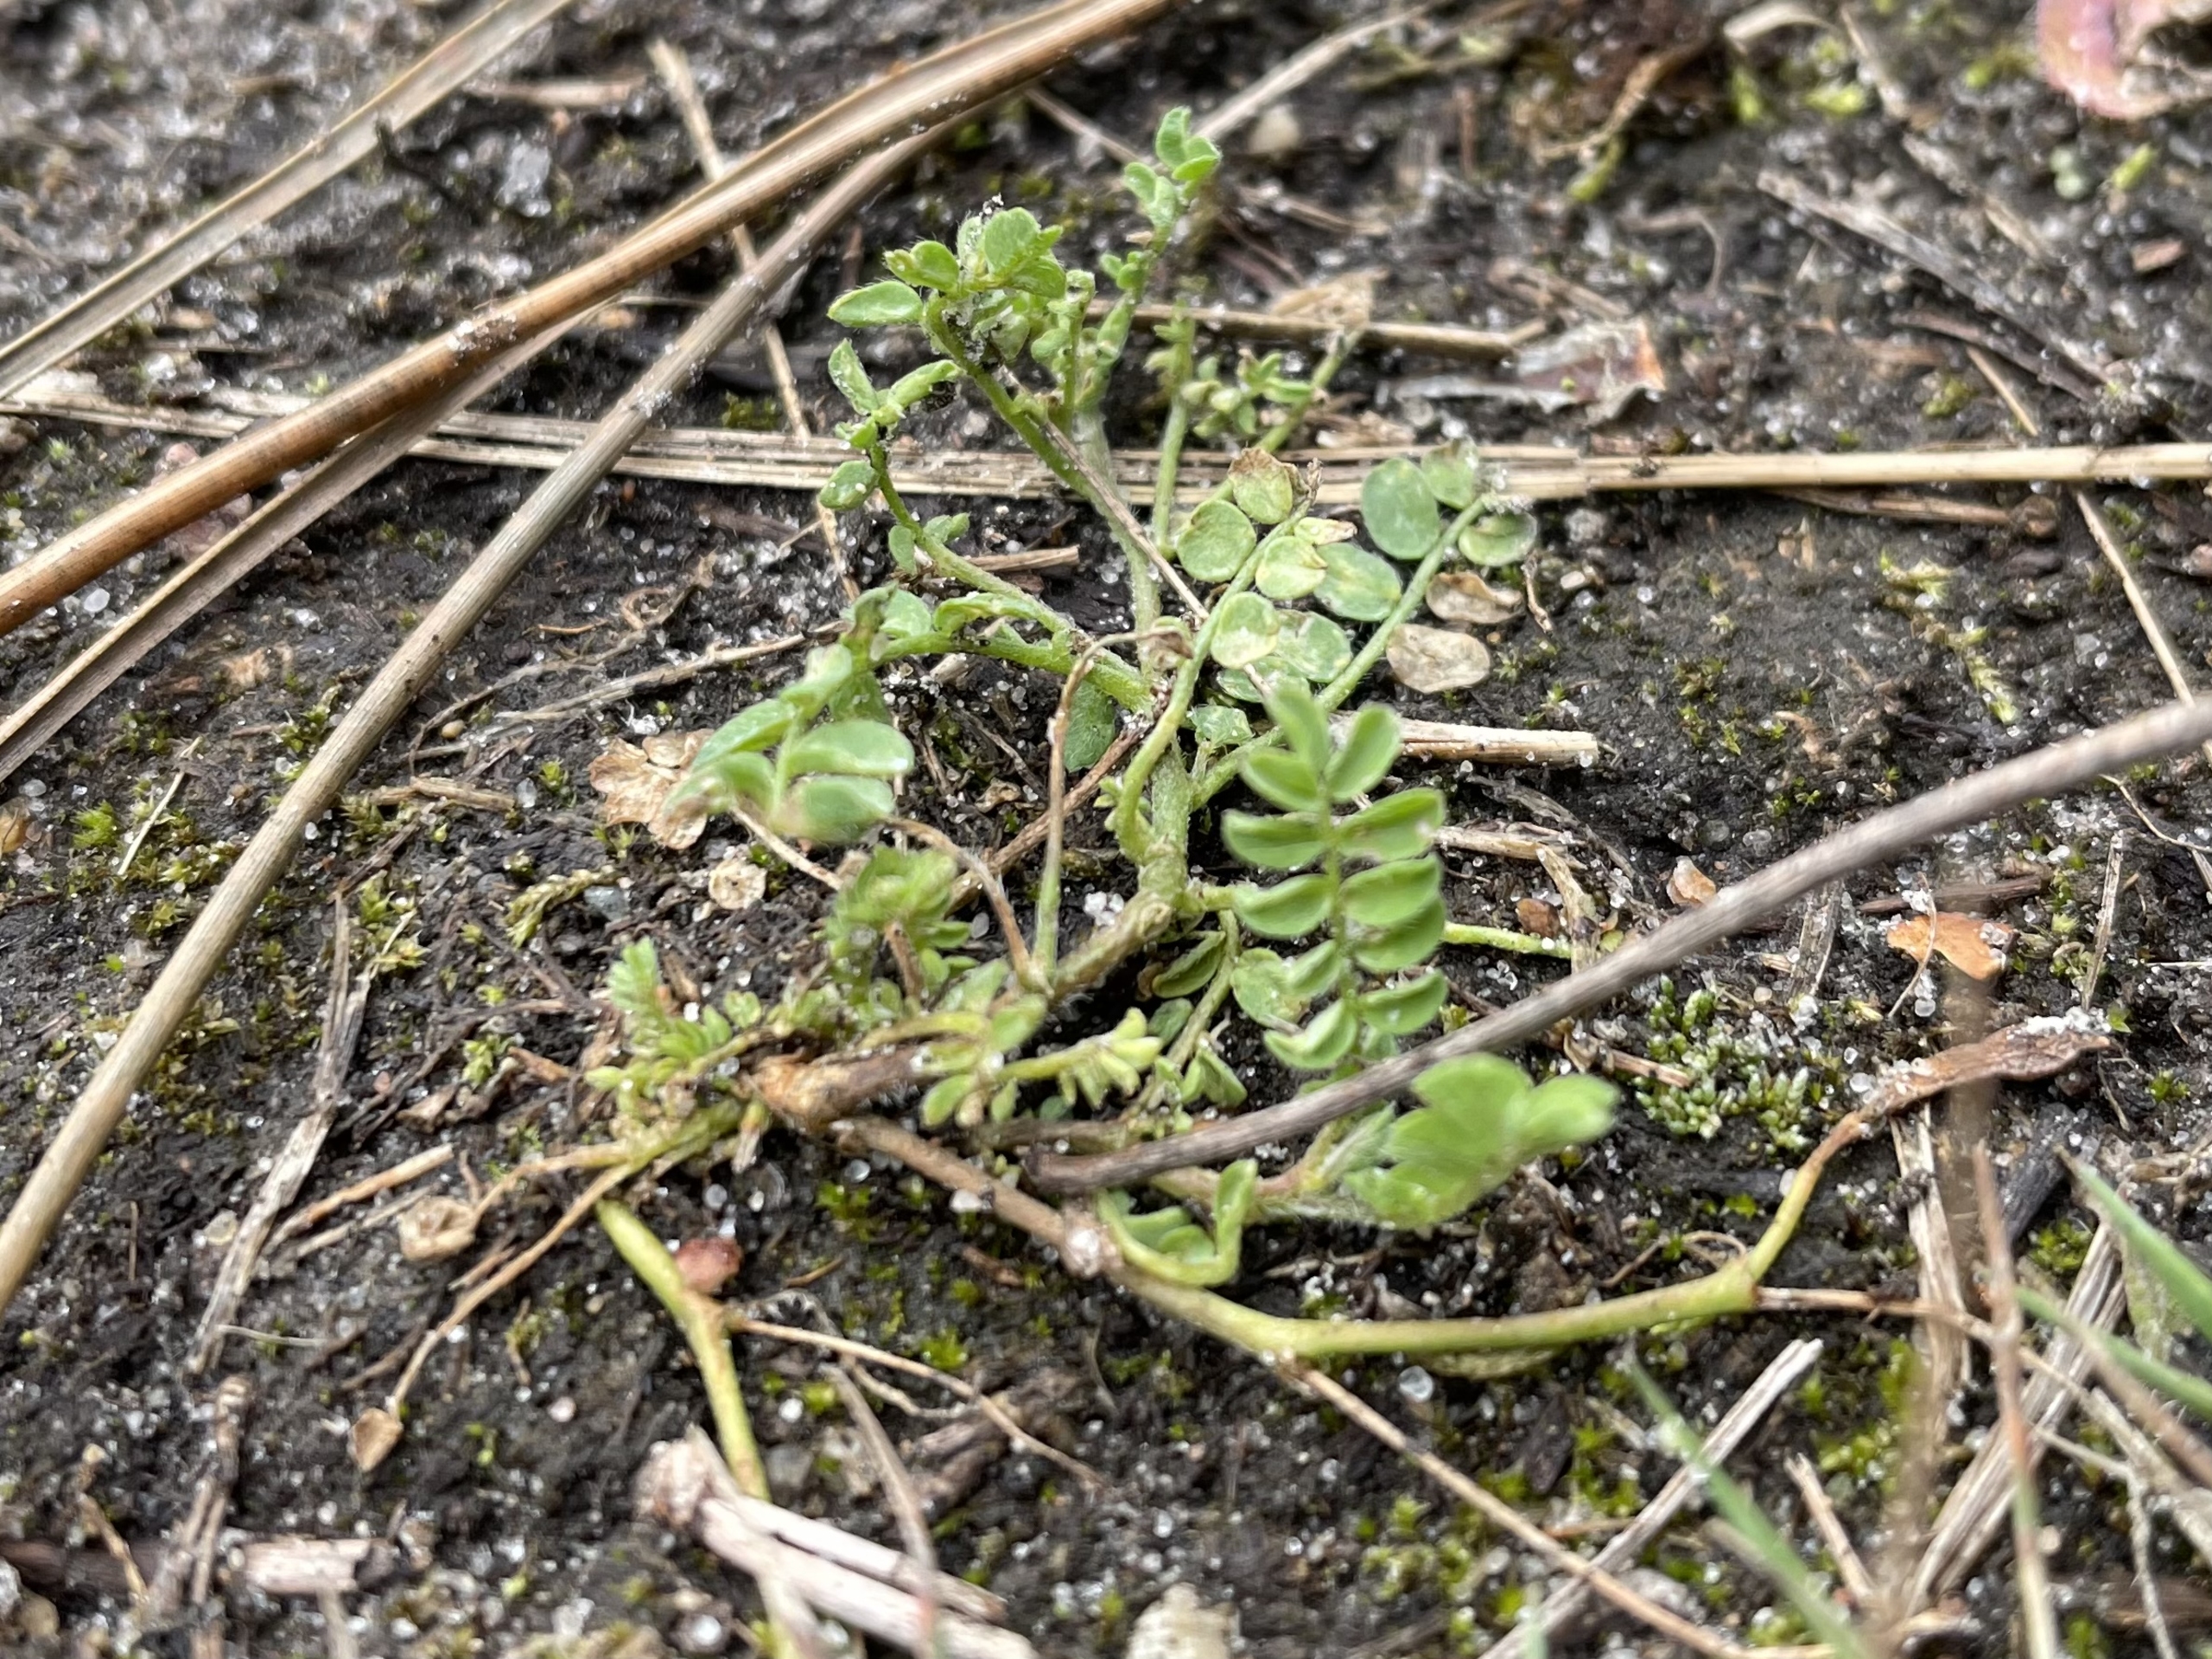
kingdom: Plantae
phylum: Tracheophyta
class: Magnoliopsida
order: Fabales
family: Fabaceae
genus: Ornithopus
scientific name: Ornithopus perpusillus
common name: Liden fugleklo
